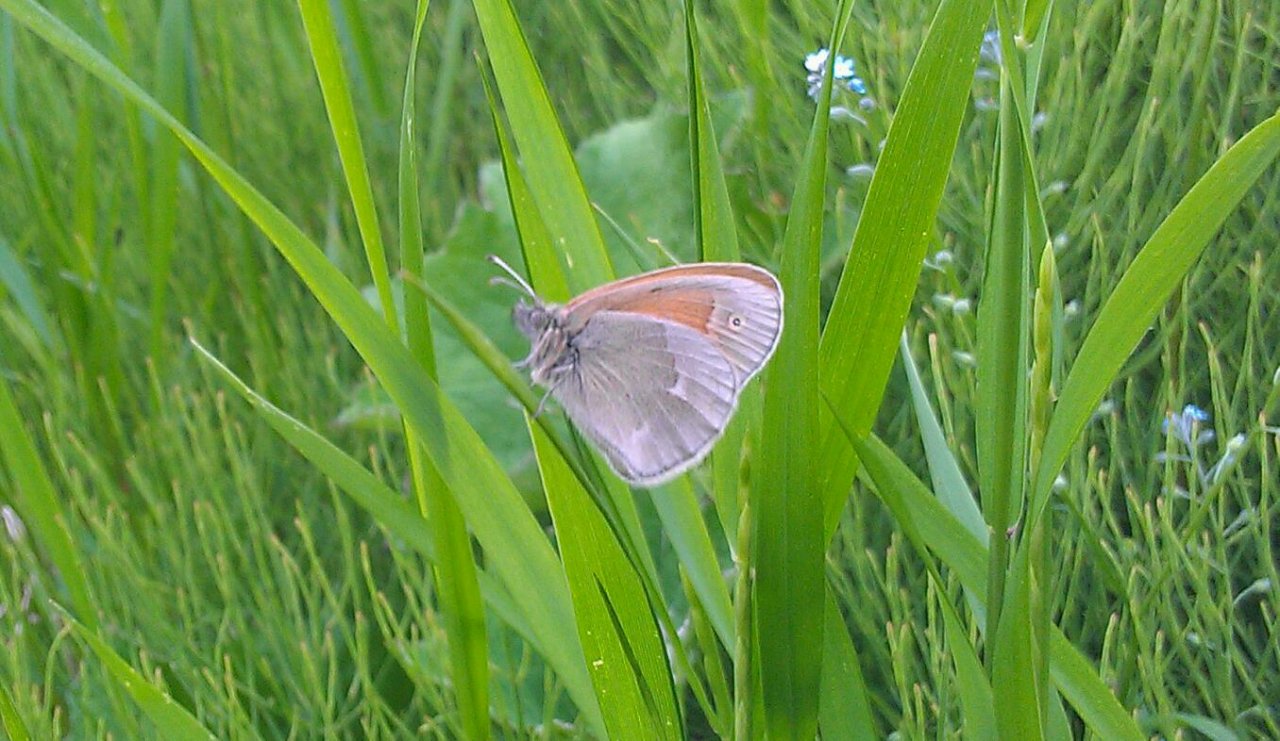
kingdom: Animalia
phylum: Arthropoda
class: Insecta
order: Lepidoptera
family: Nymphalidae
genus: Coenonympha
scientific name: Coenonympha tullia
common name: Large Heath
